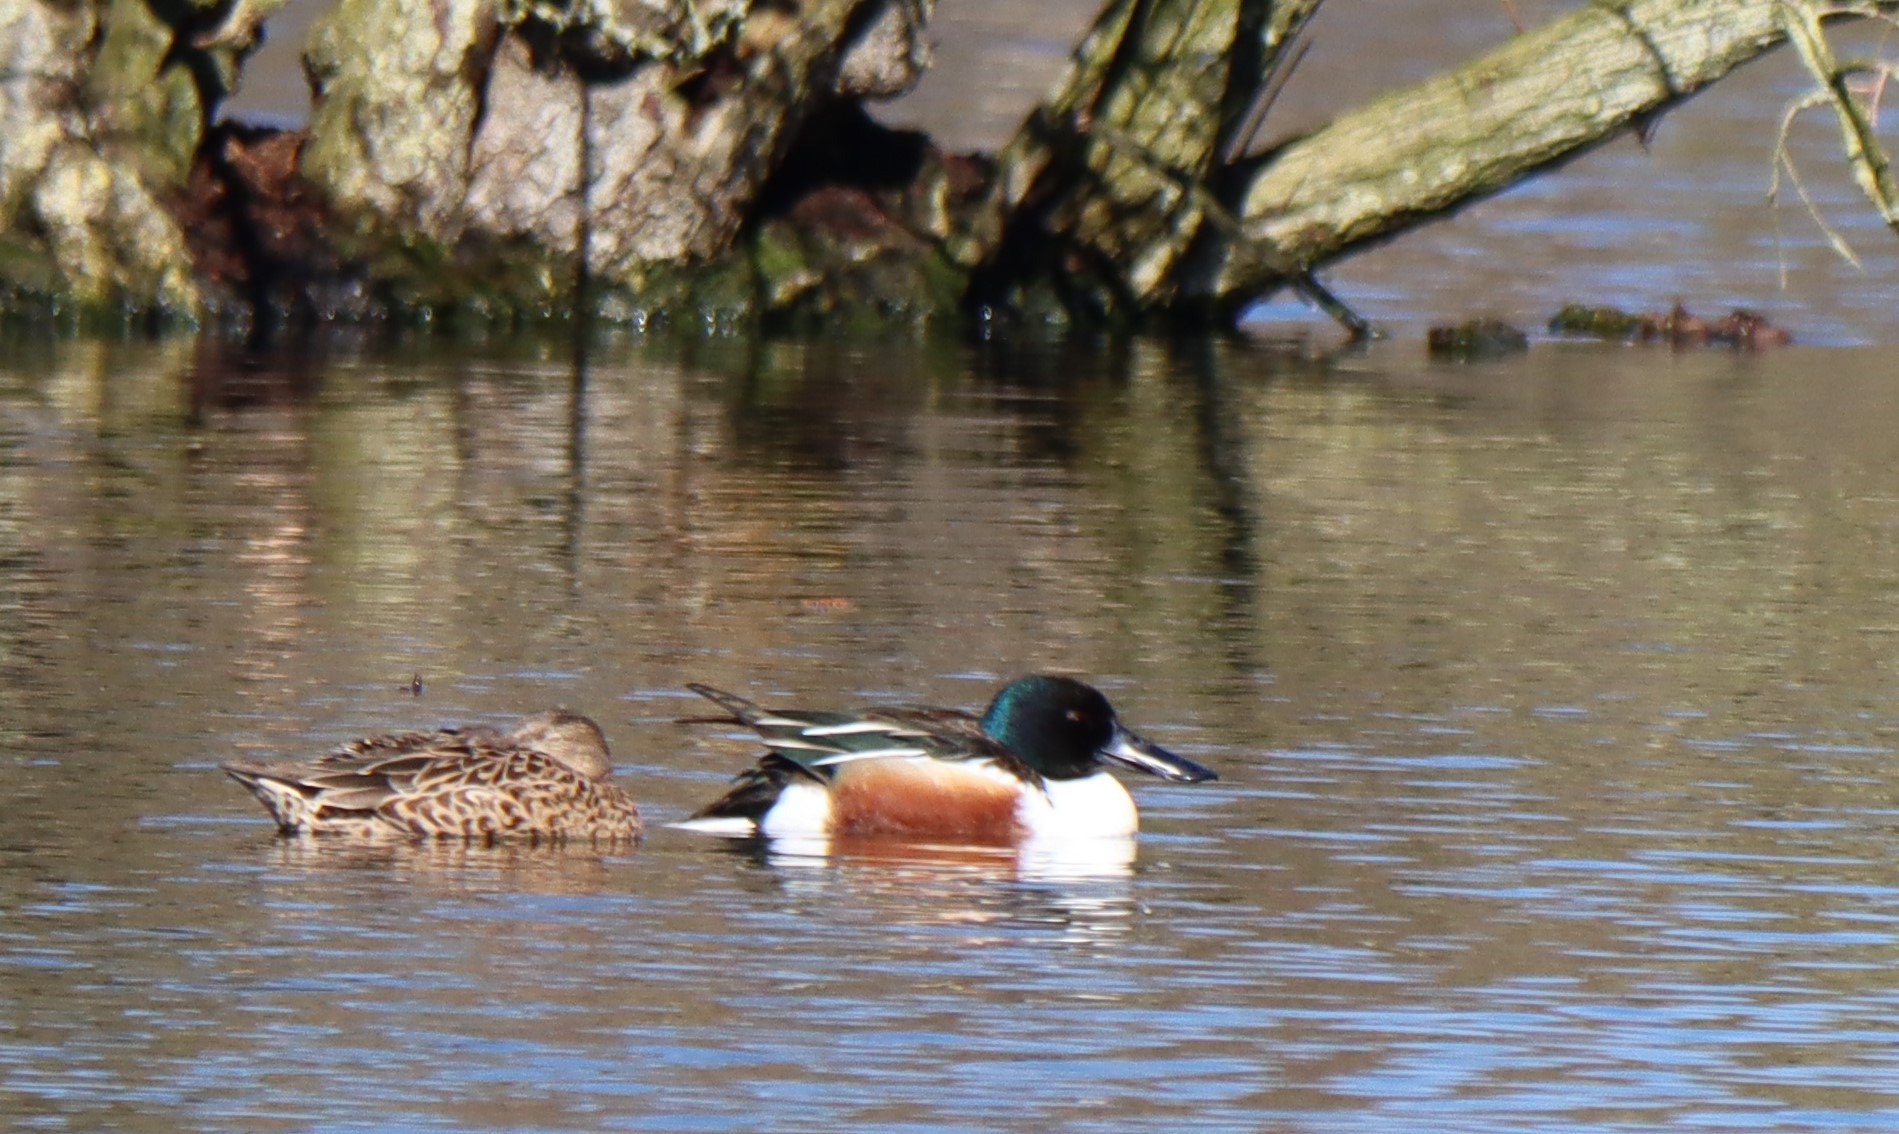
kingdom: Animalia
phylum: Chordata
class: Aves
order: Anseriformes
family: Anatidae
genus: Spatula
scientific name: Spatula clypeata
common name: Skeand
